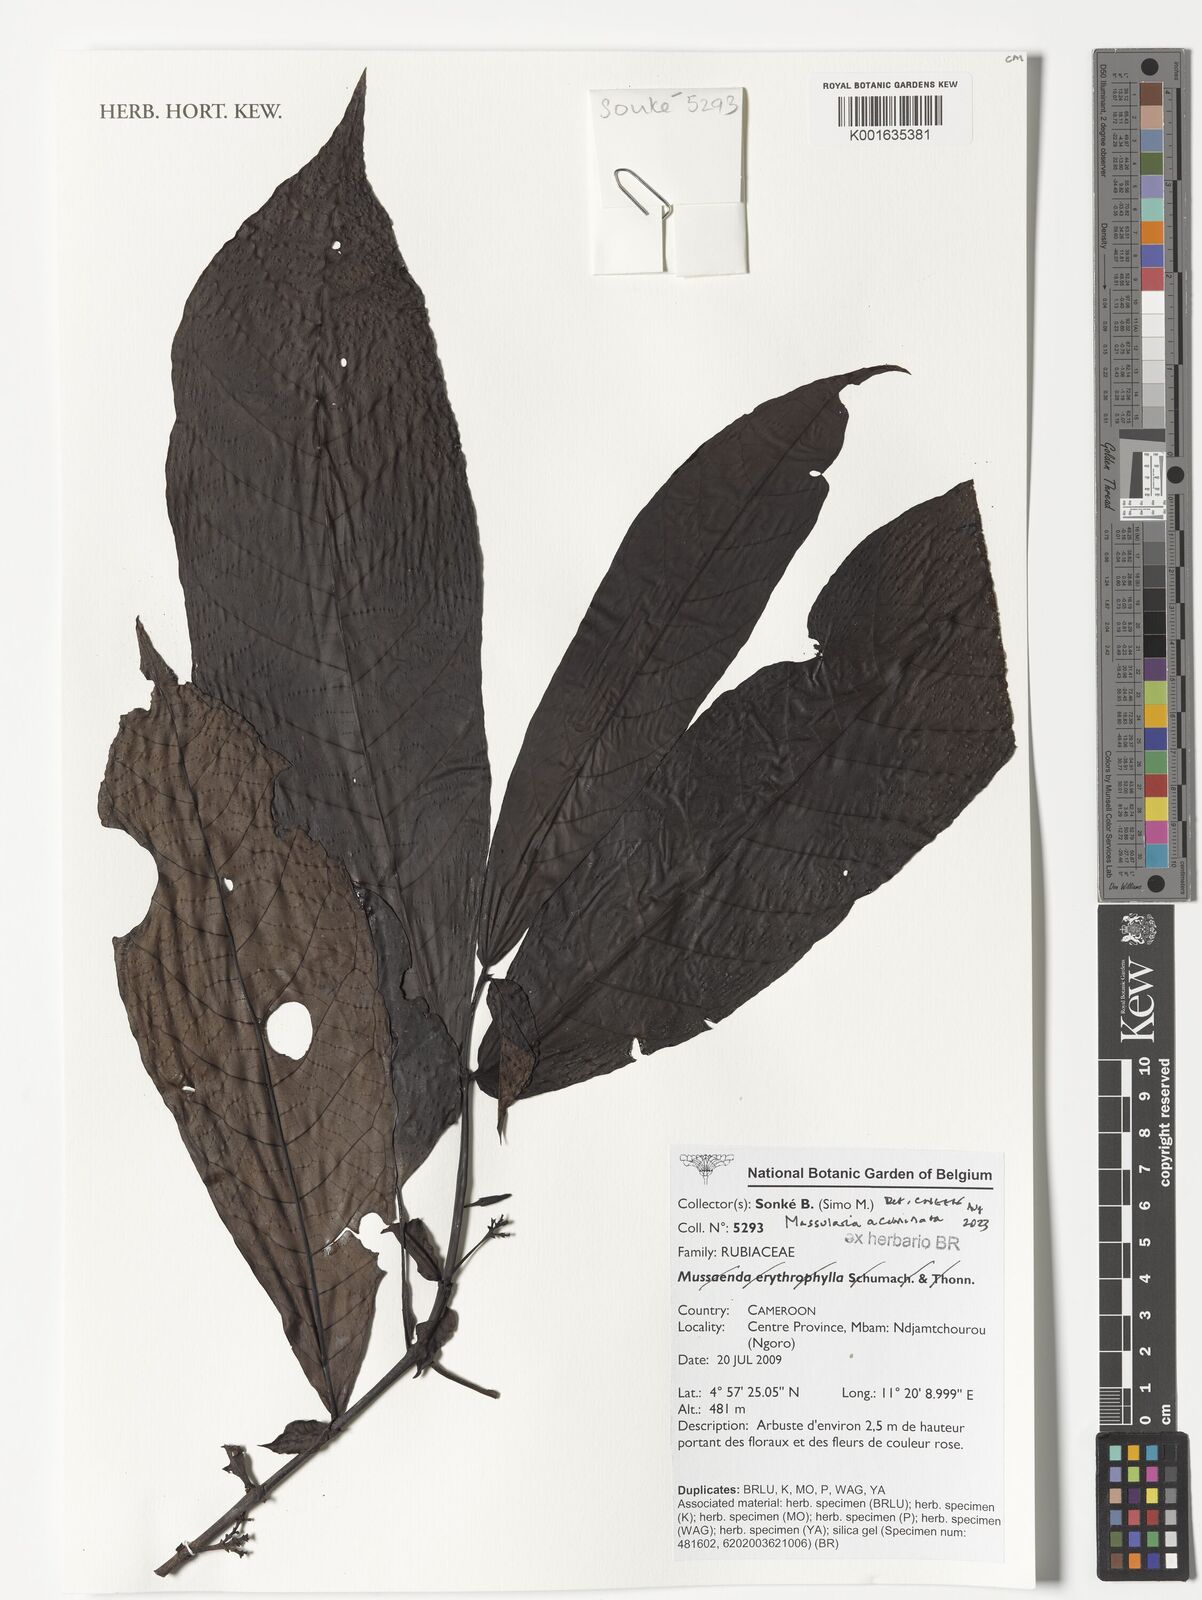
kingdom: Plantae
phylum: Tracheophyta
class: Magnoliopsida
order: Gentianales
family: Rubiaceae
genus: Massularia
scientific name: Massularia acuminata
